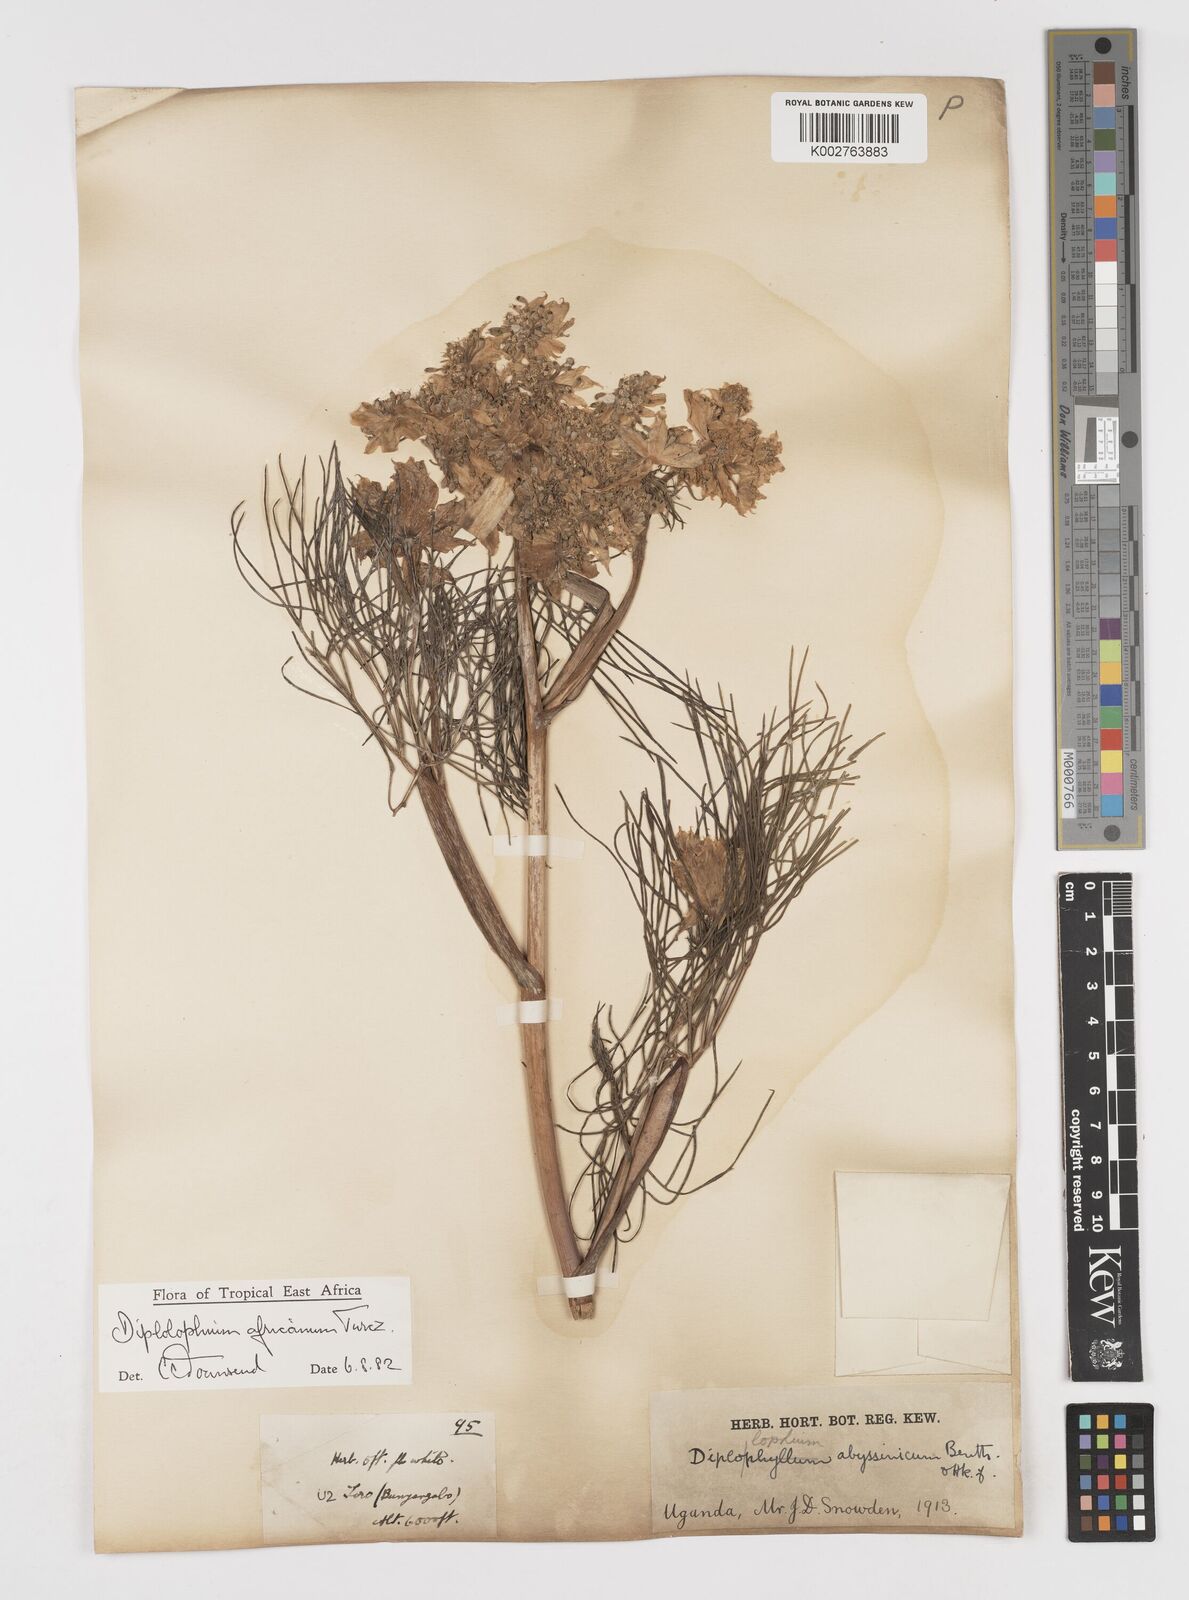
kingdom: Plantae
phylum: Tracheophyta
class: Magnoliopsida
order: Apiales
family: Apiaceae
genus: Diplolophium
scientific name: Diplolophium africanum
